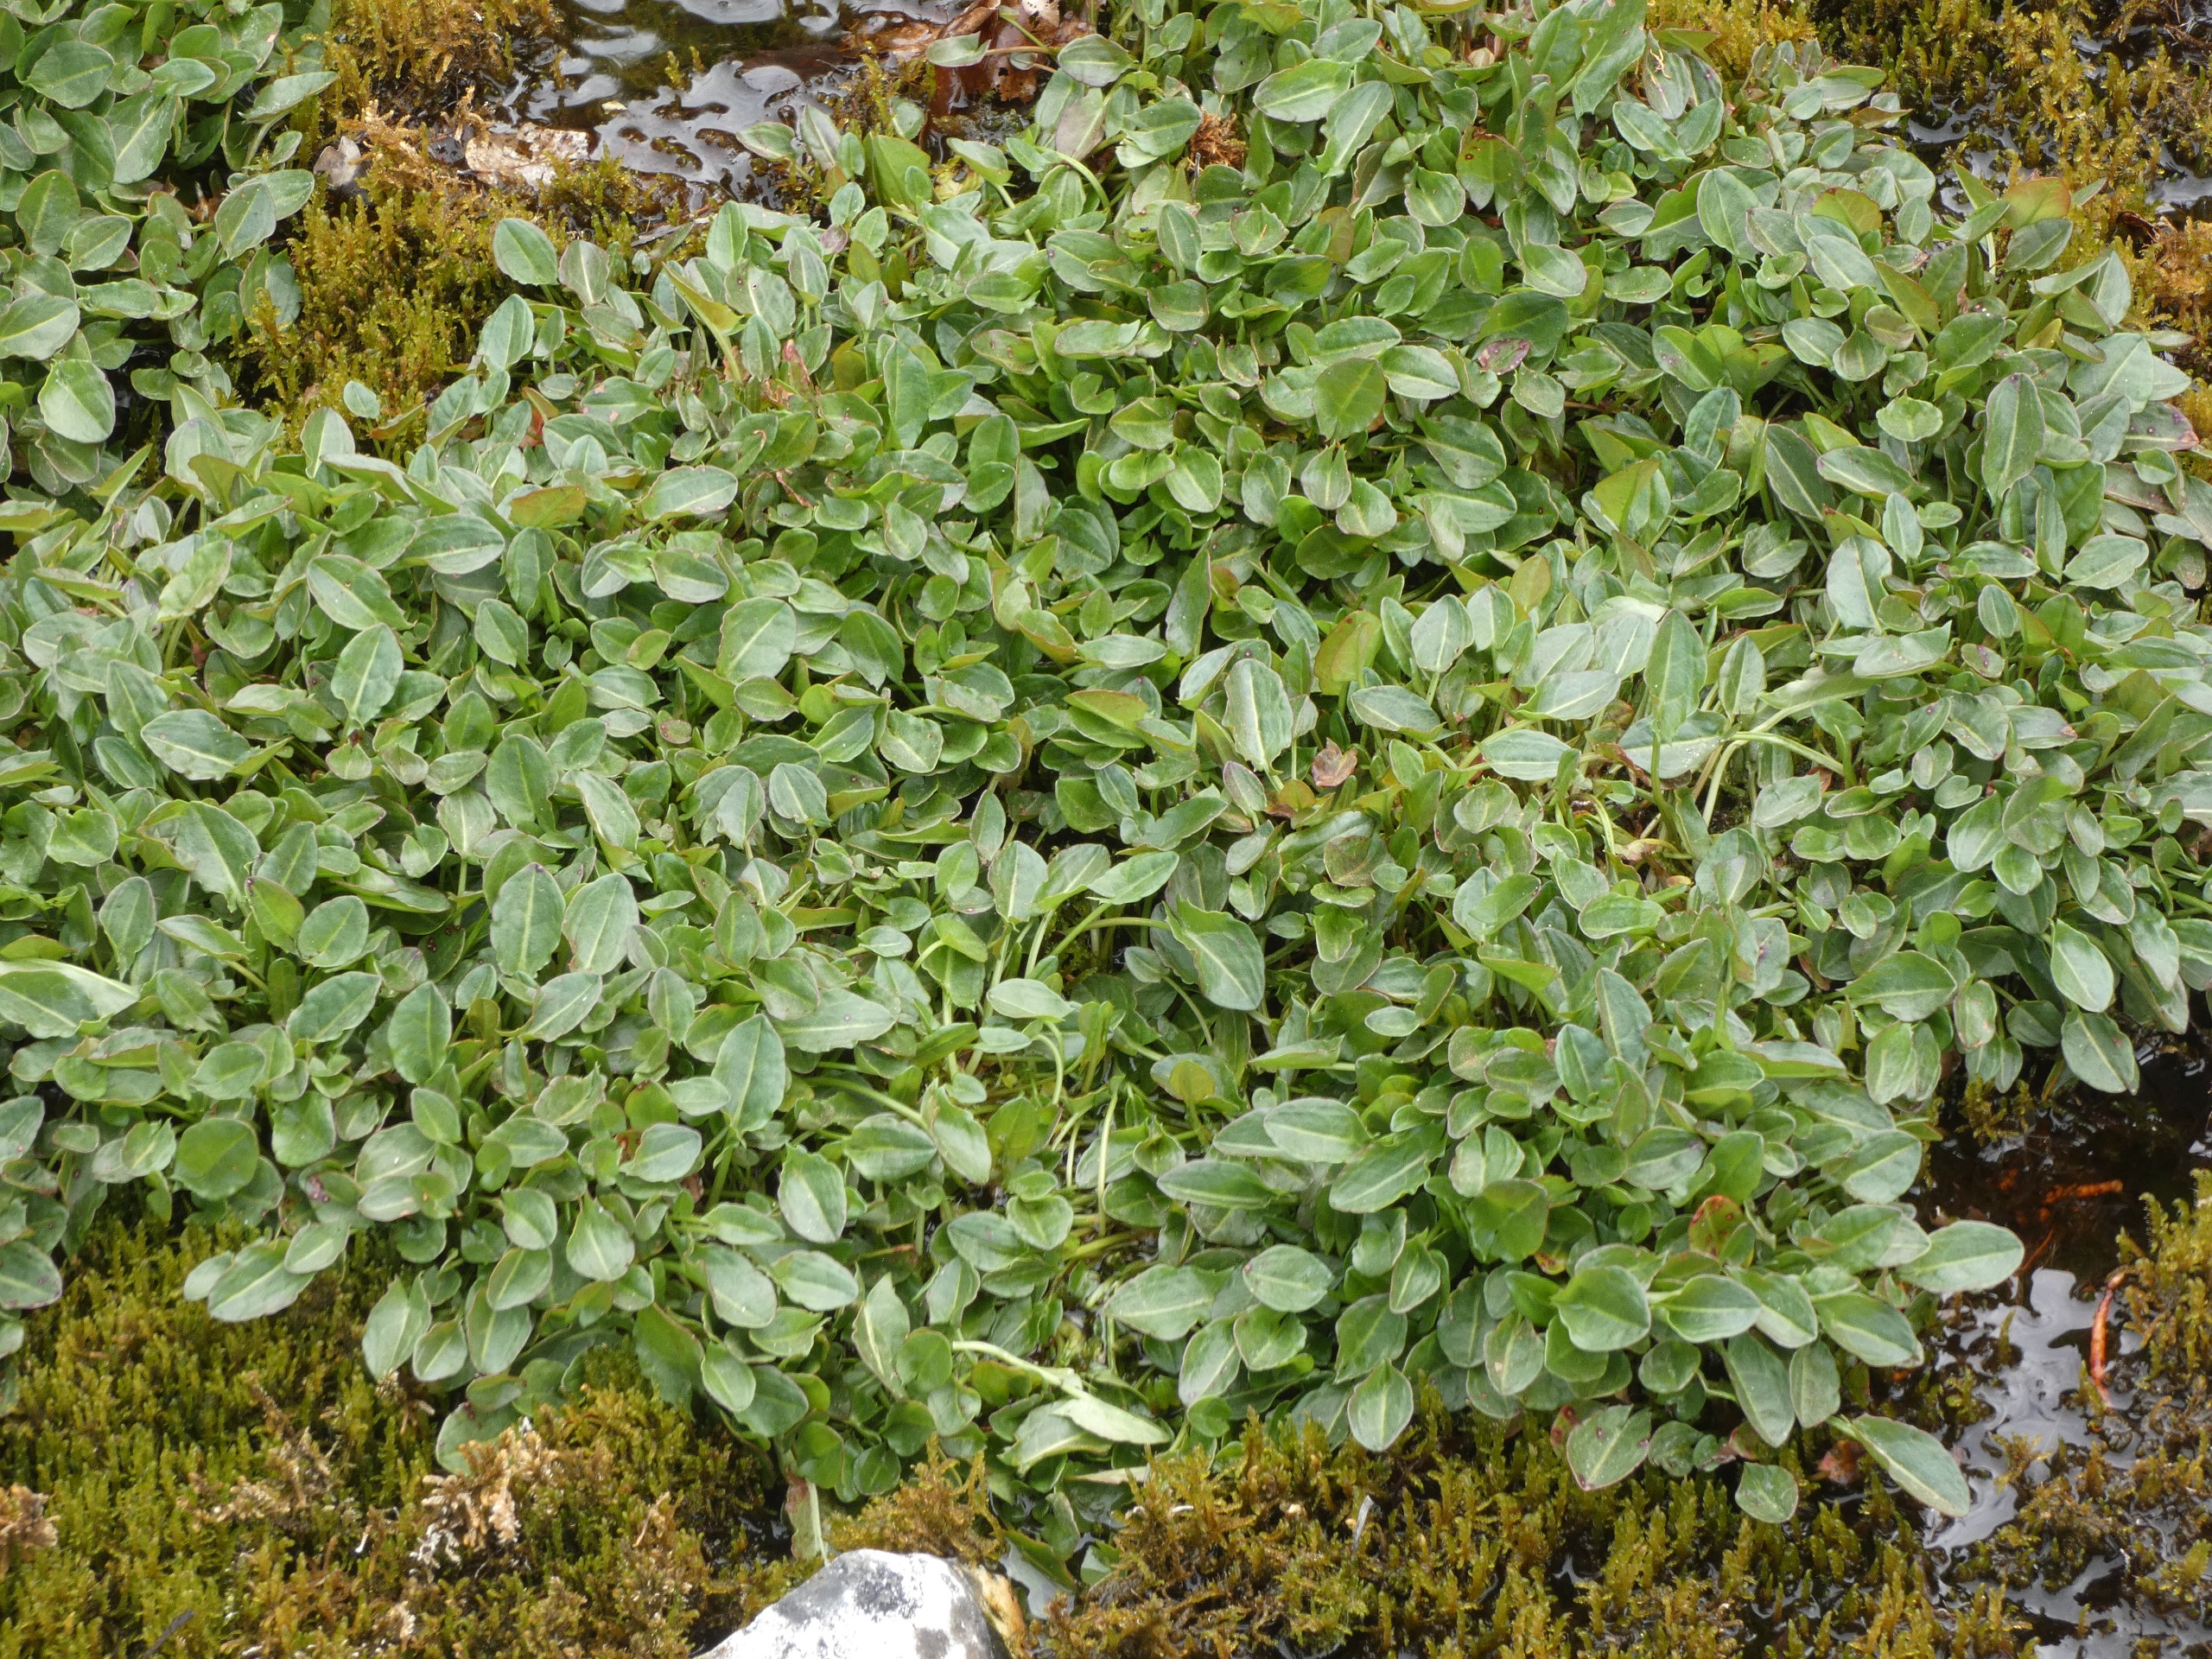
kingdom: Plantae
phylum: Tracheophyta
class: Magnoliopsida
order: Caryophyllales
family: Polygonaceae
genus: Rumex
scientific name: Rumex acetosa
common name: Kilde-syre
